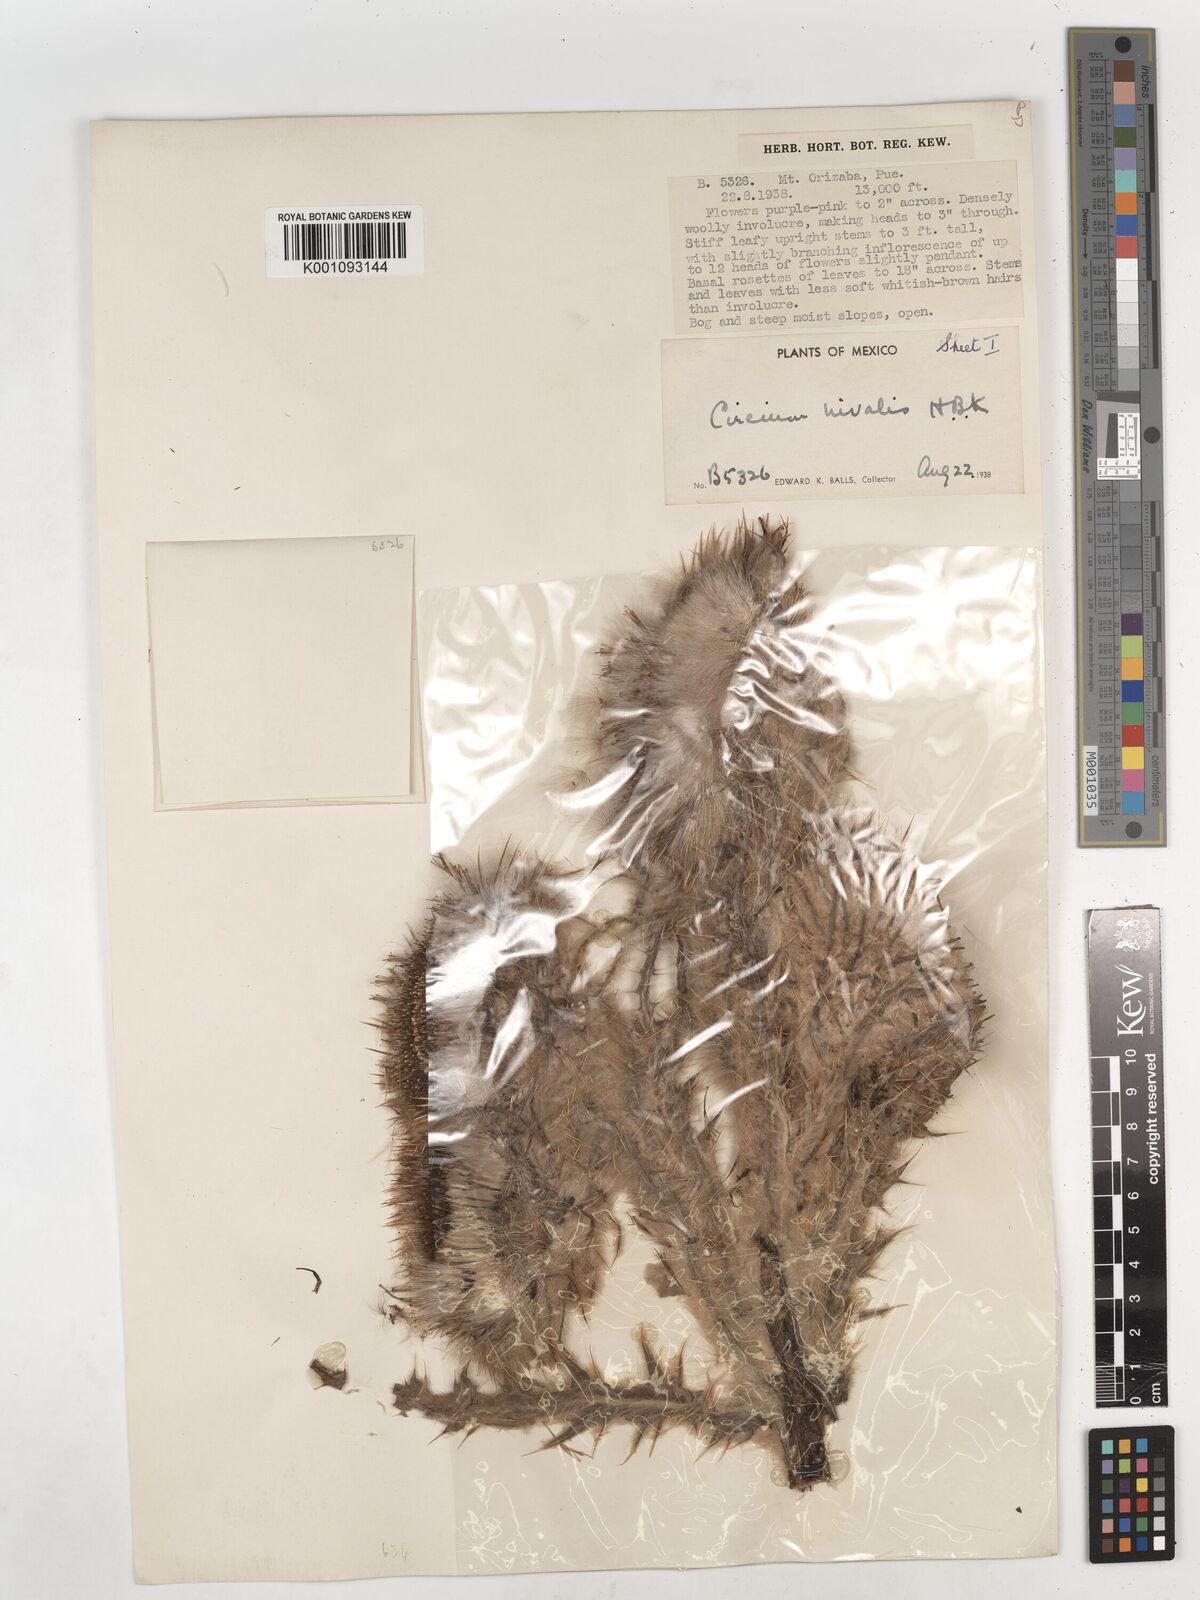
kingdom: Plantae
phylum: Tracheophyta
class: Magnoliopsida
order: Asterales
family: Asteraceae
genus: Cirsium
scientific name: Cirsium nivale
